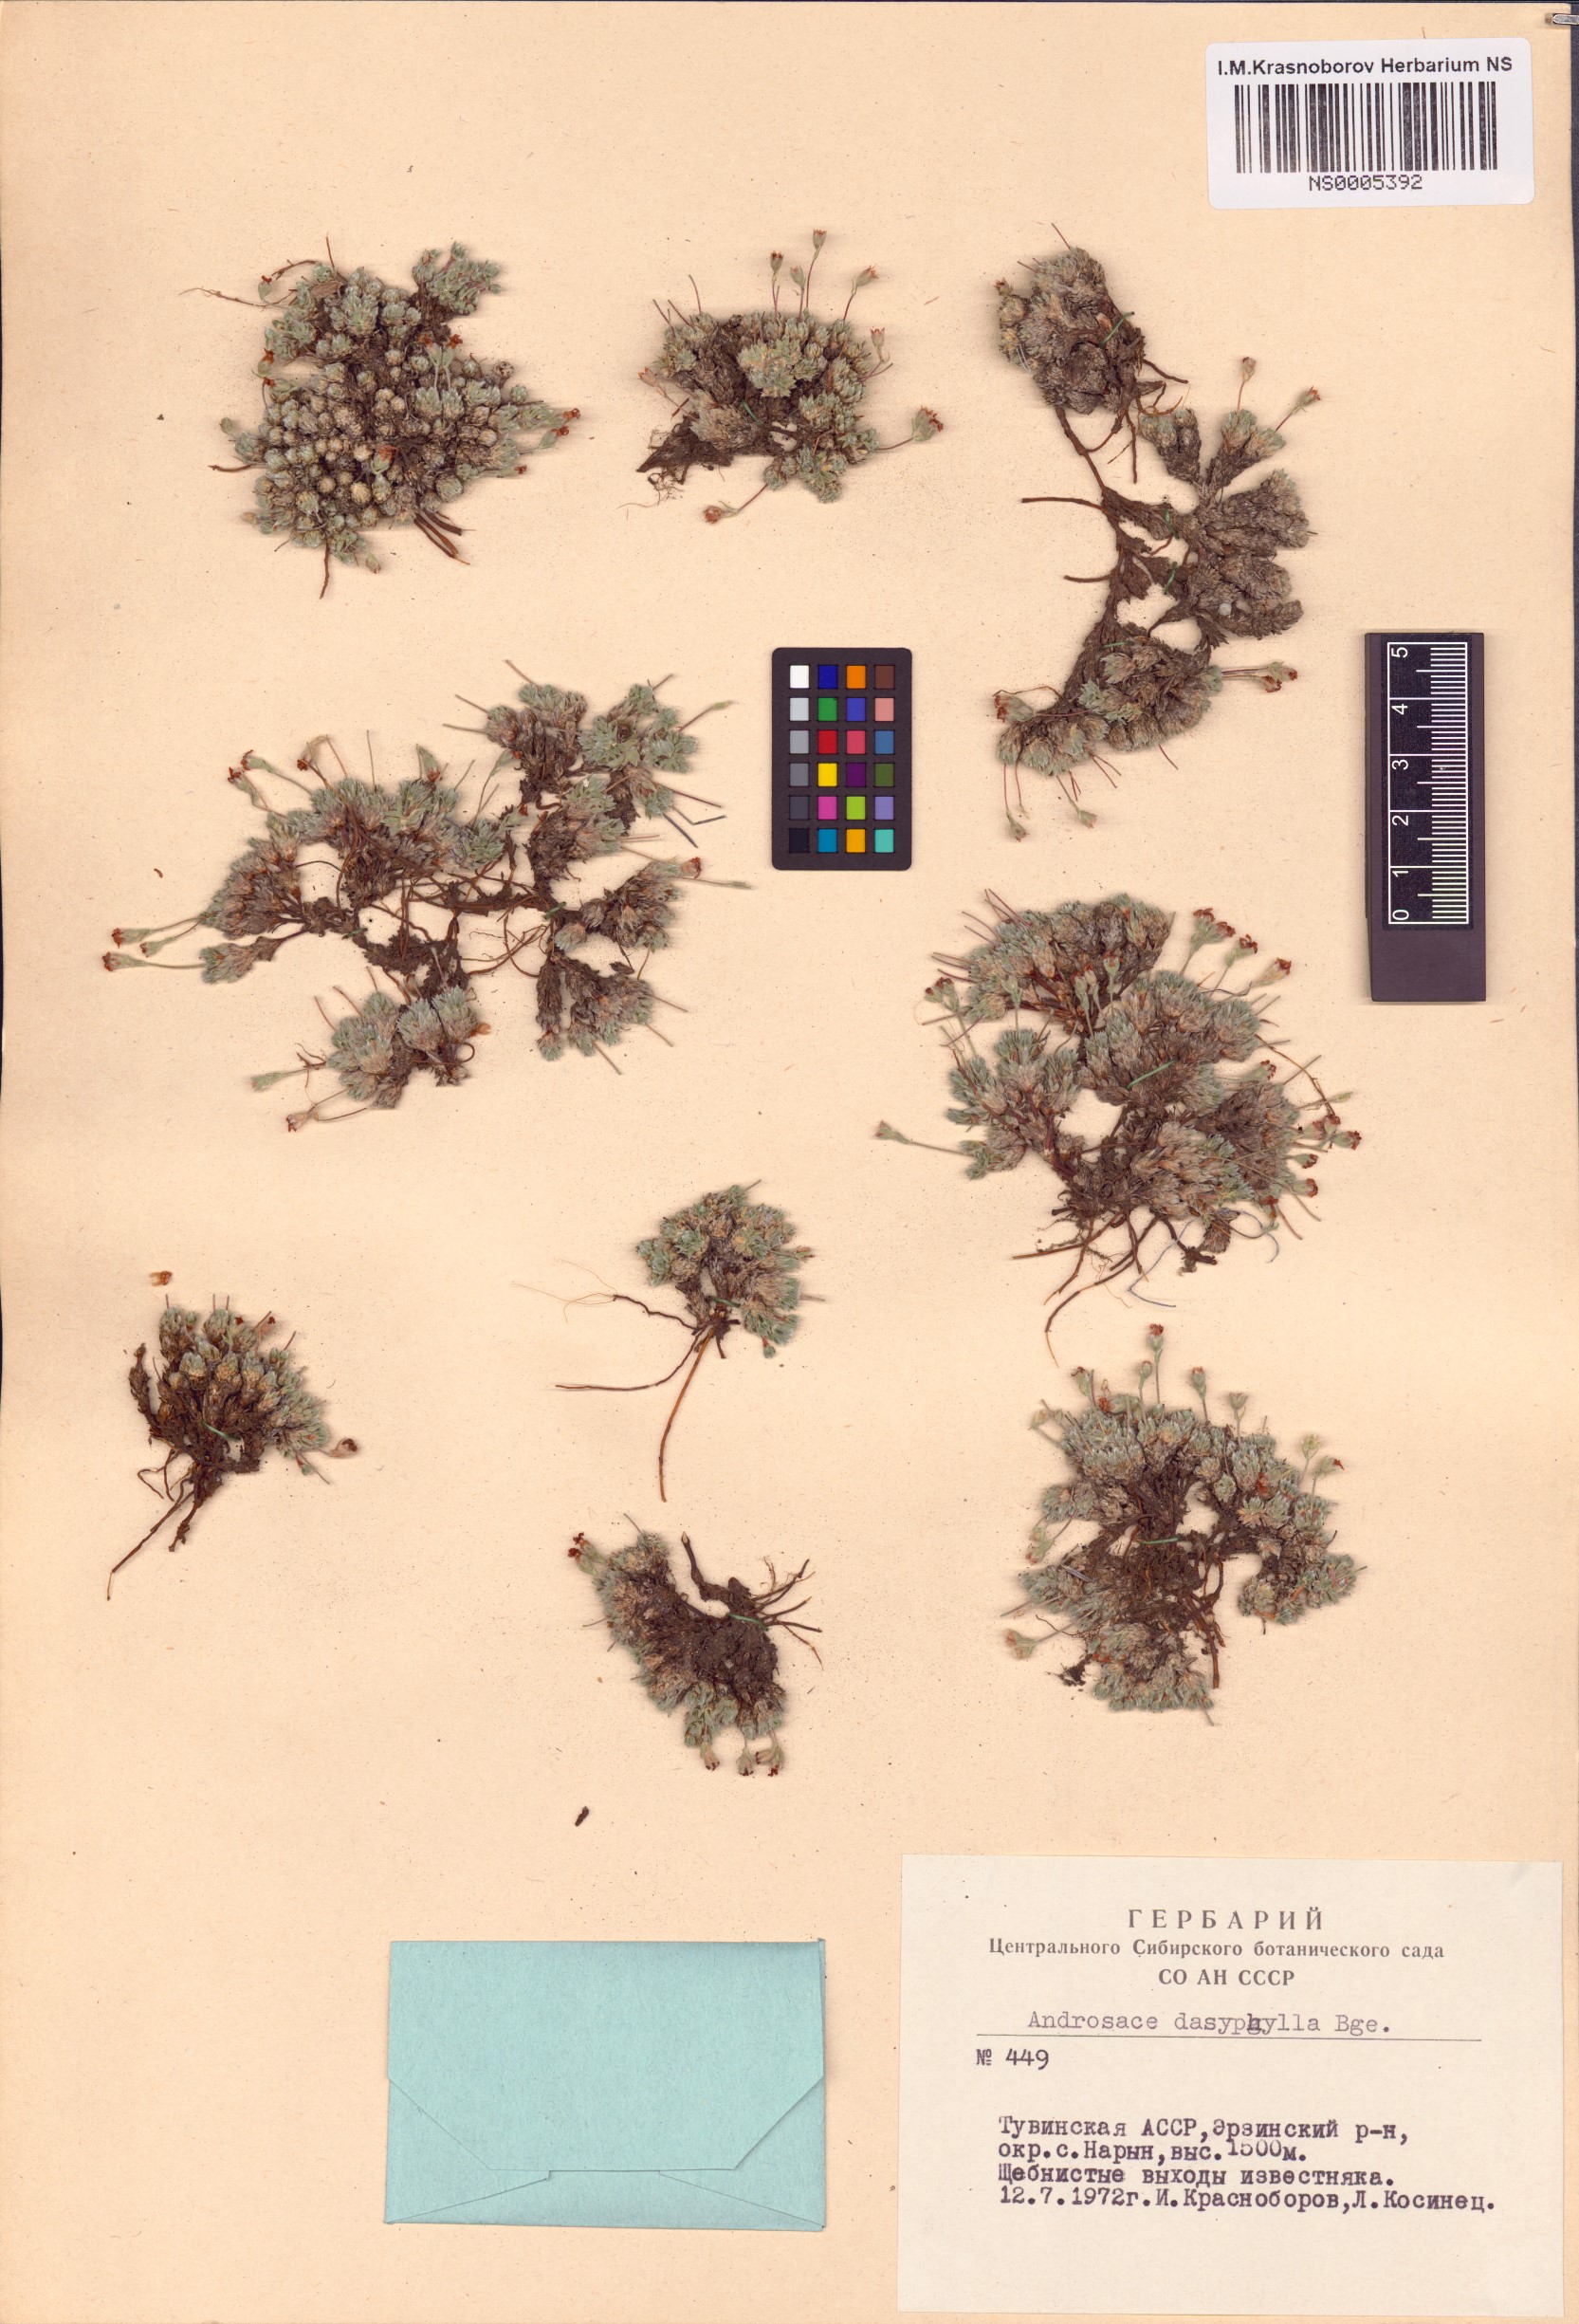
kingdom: Plantae
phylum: Tracheophyta
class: Magnoliopsida
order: Ericales
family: Primulaceae
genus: Androsace
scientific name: Androsace dasyphylla
